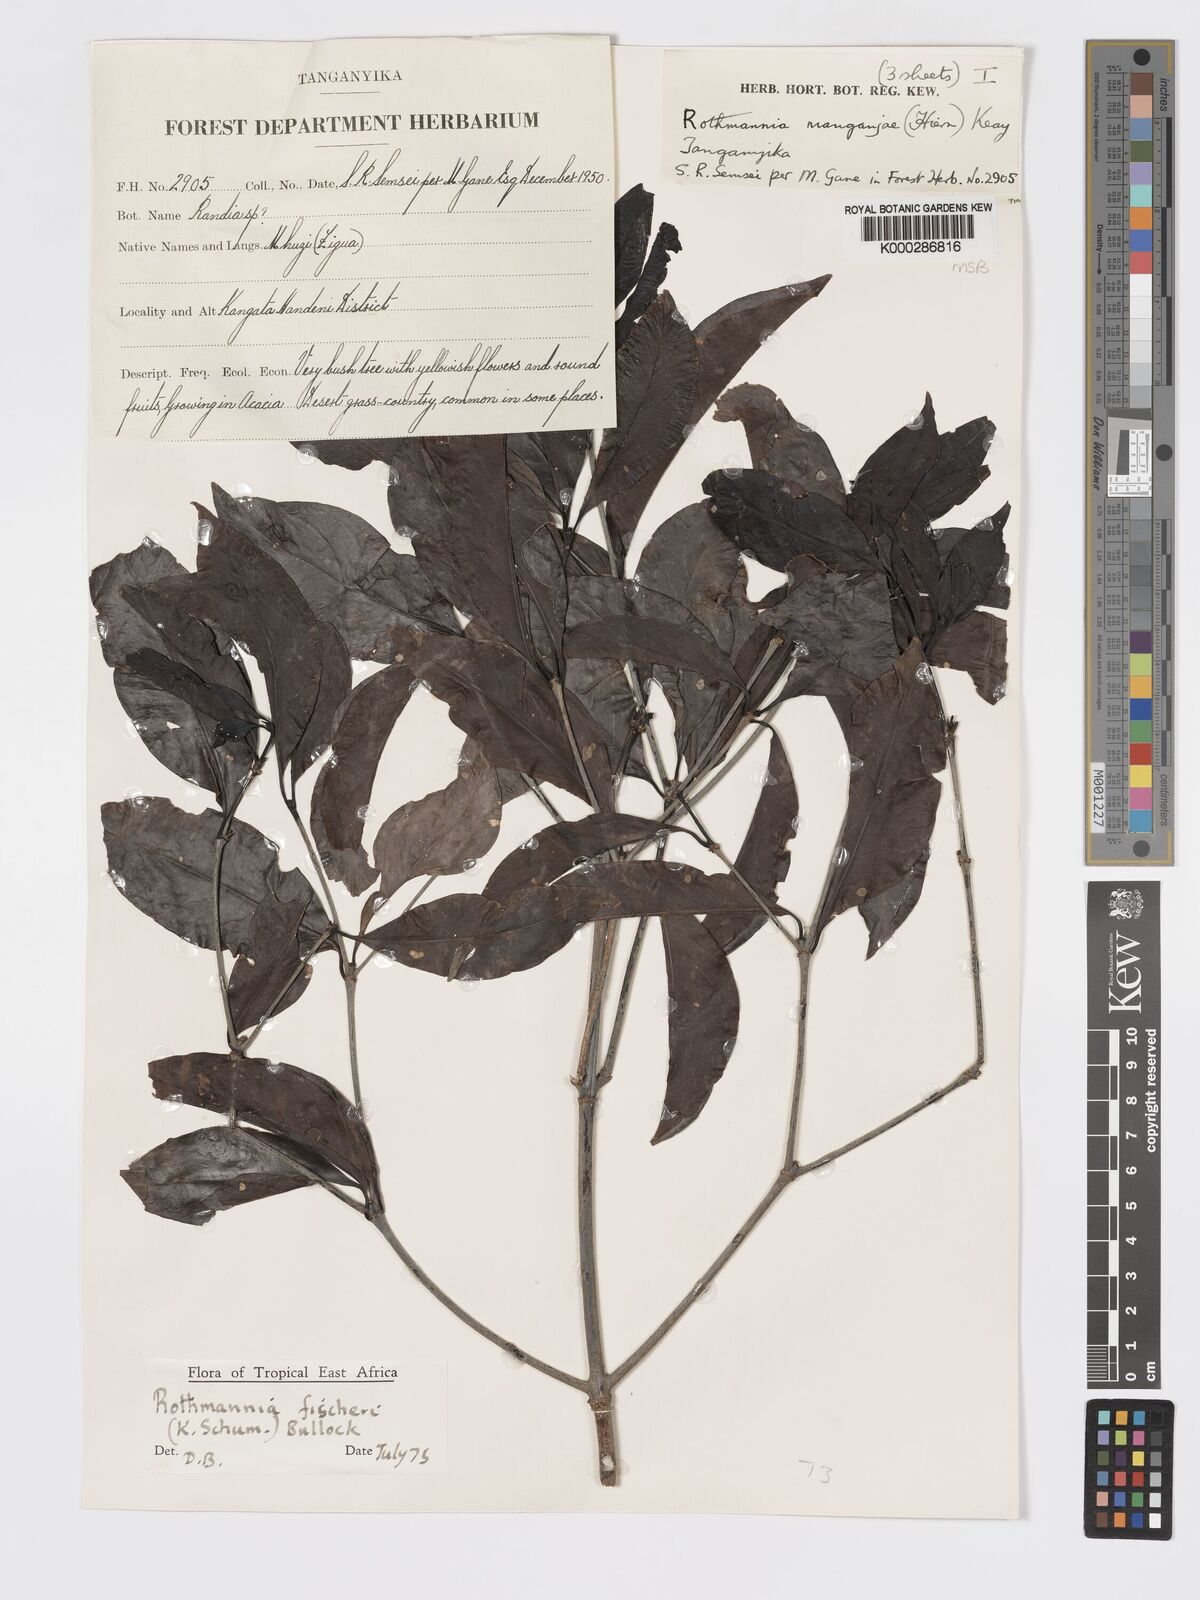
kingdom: Plantae
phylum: Tracheophyta
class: Magnoliopsida
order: Gentianales
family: Rubiaceae
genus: Rothmannia
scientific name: Rothmannia ravae
